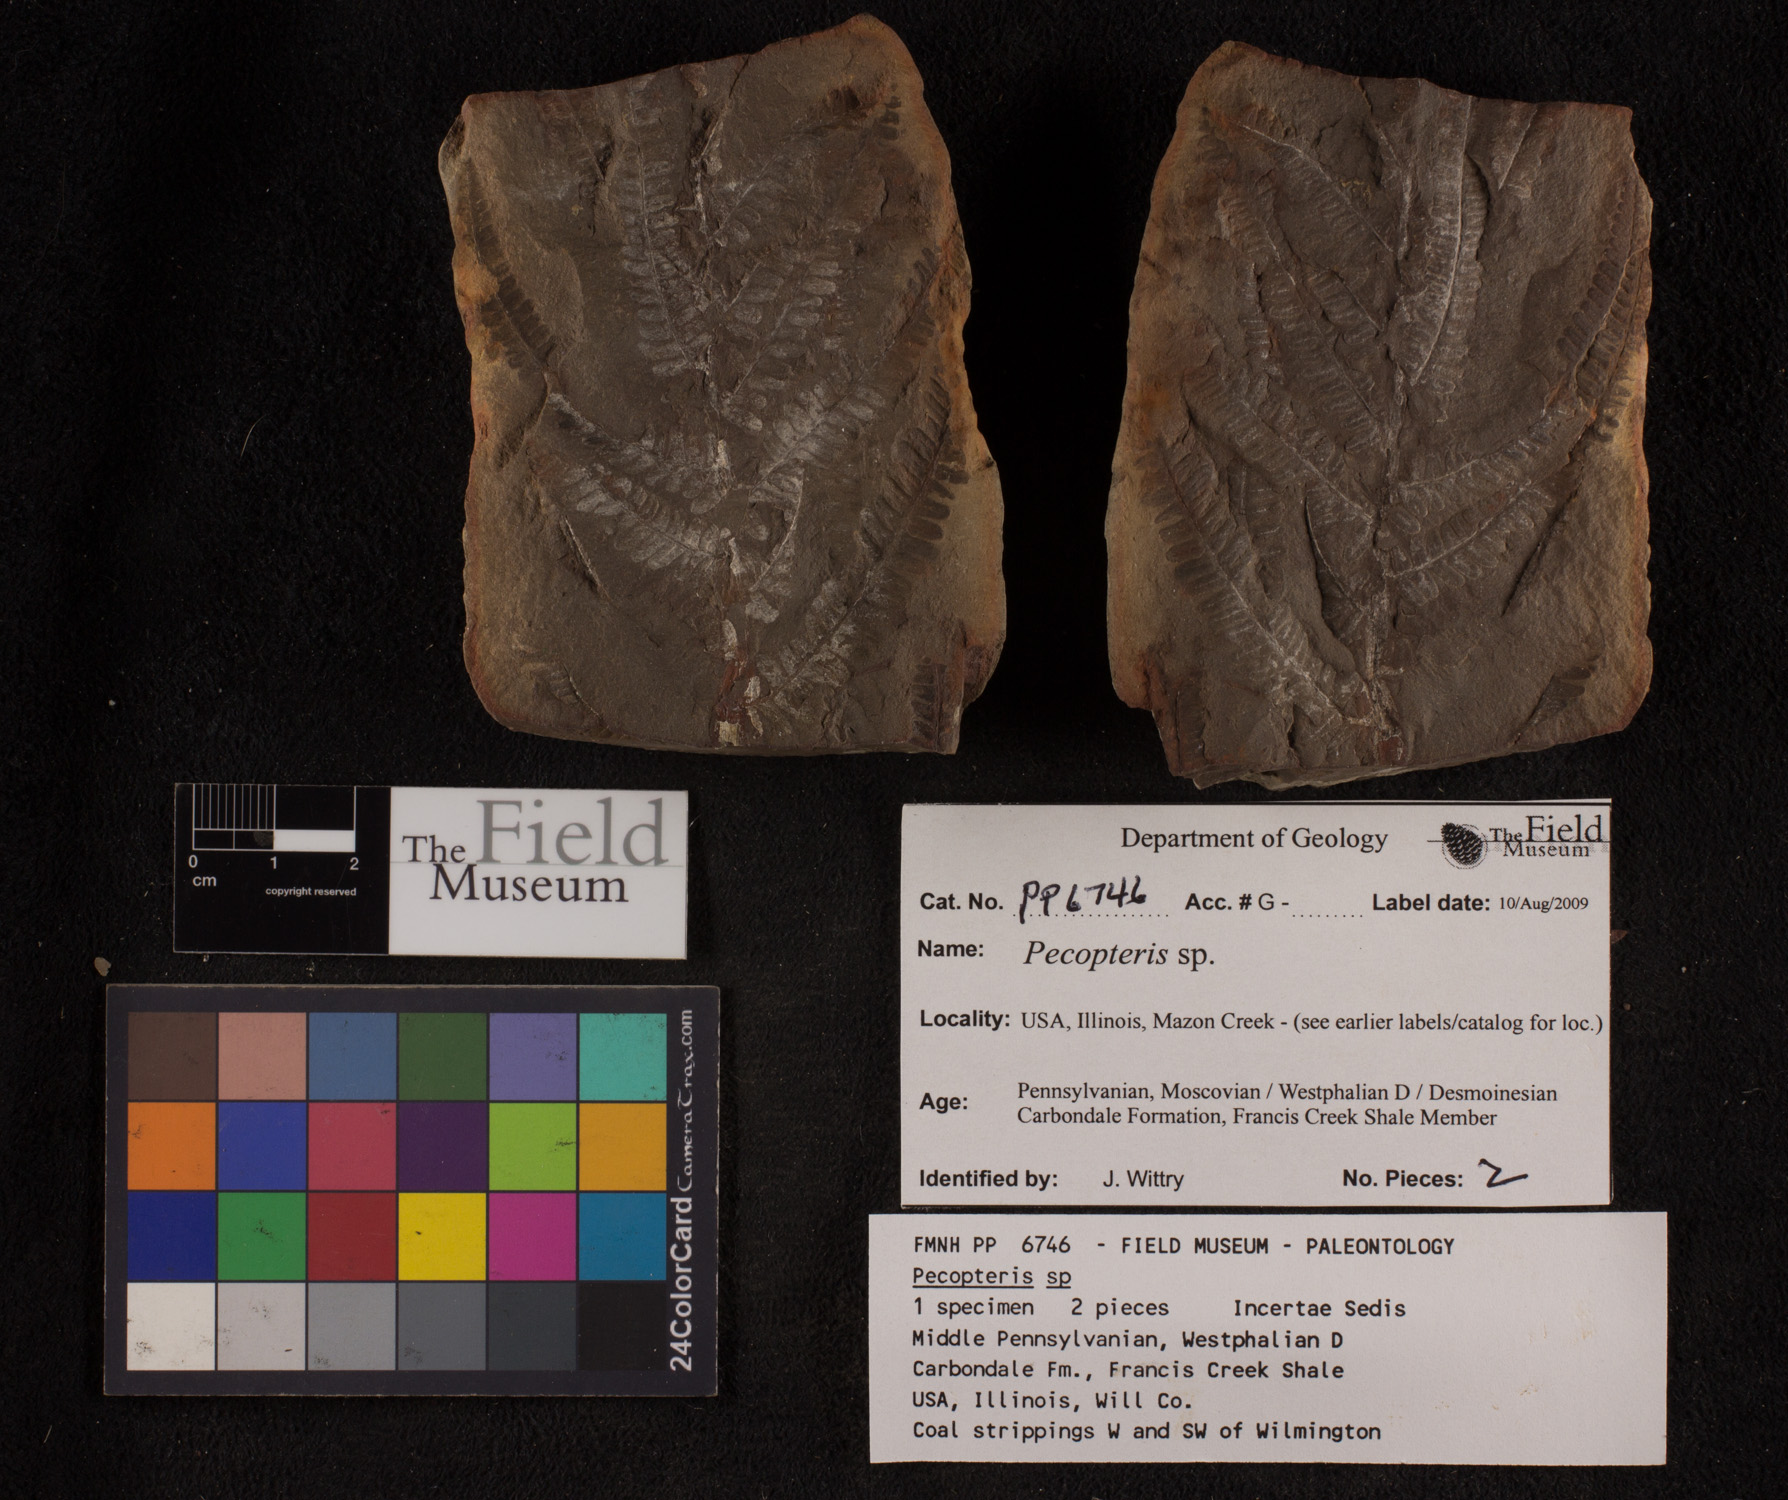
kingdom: Plantae
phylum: Tracheophyta
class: Polypodiopsida
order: Marattiales
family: Asterothecaceae
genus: Pecopteris
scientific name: Pecopteris
